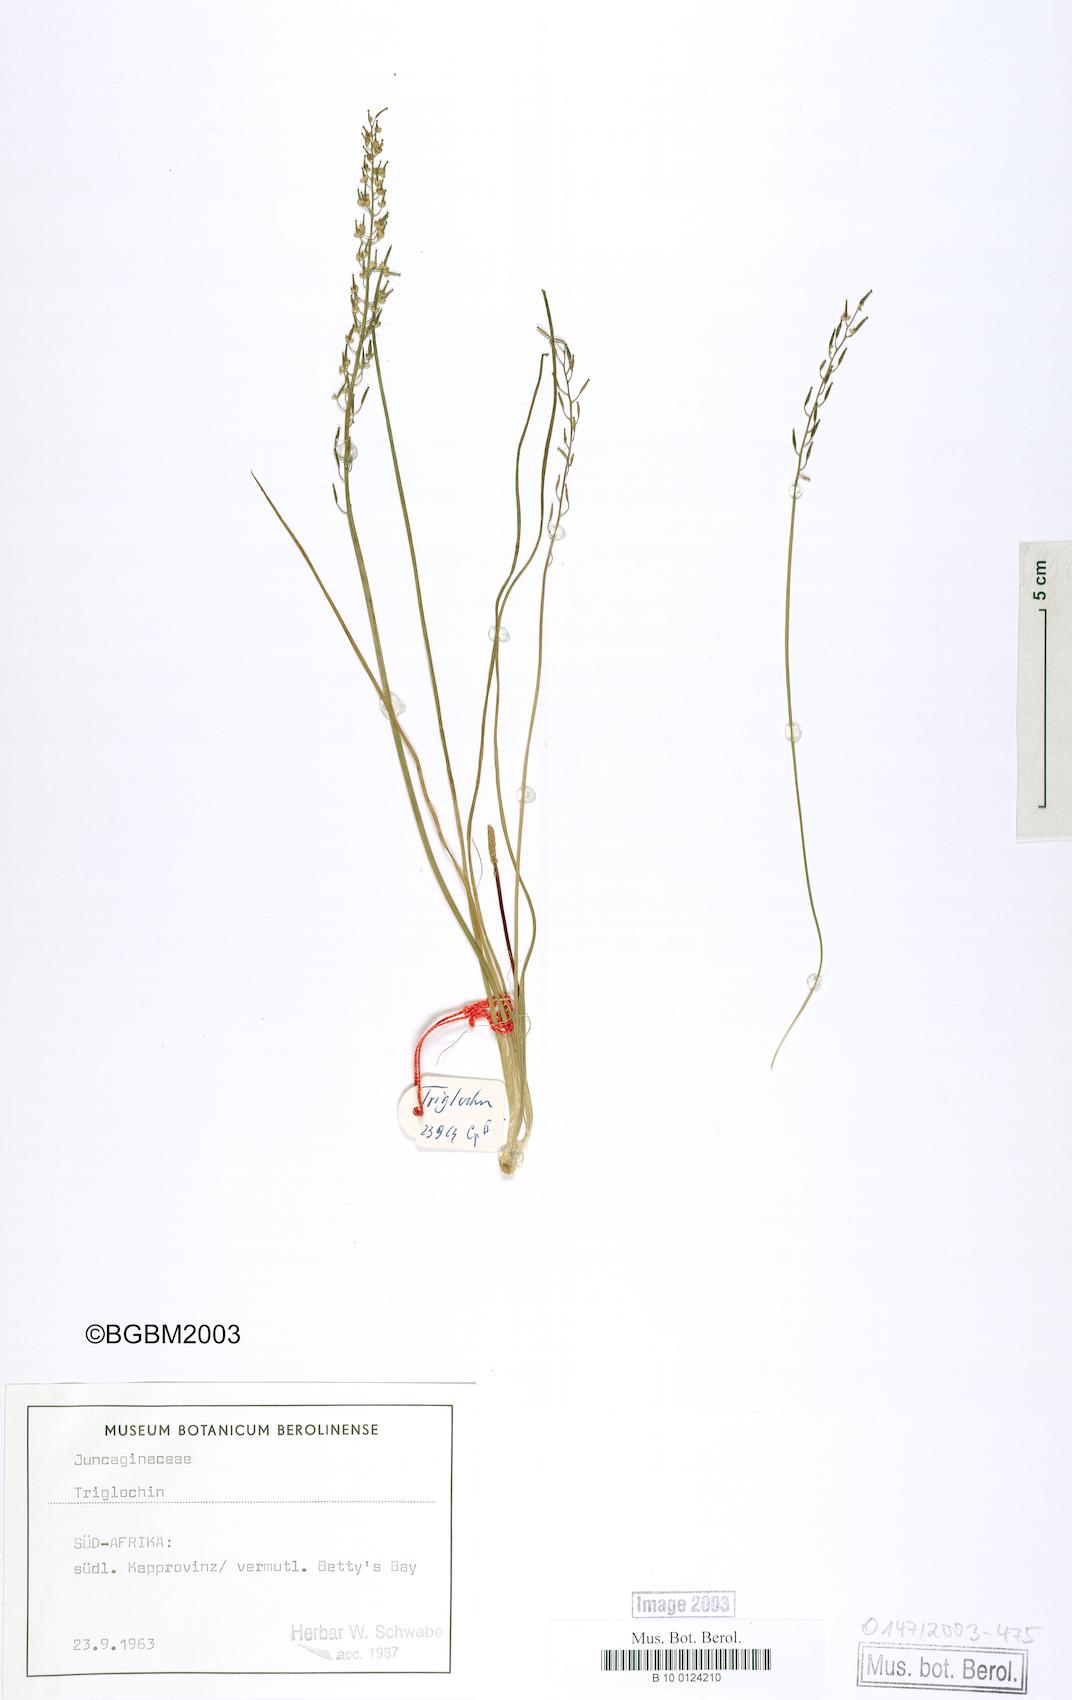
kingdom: Plantae
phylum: Tracheophyta
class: Liliopsida
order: Alismatales
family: Juncaginaceae
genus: Triglochin
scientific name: Triglochin bulbosa
